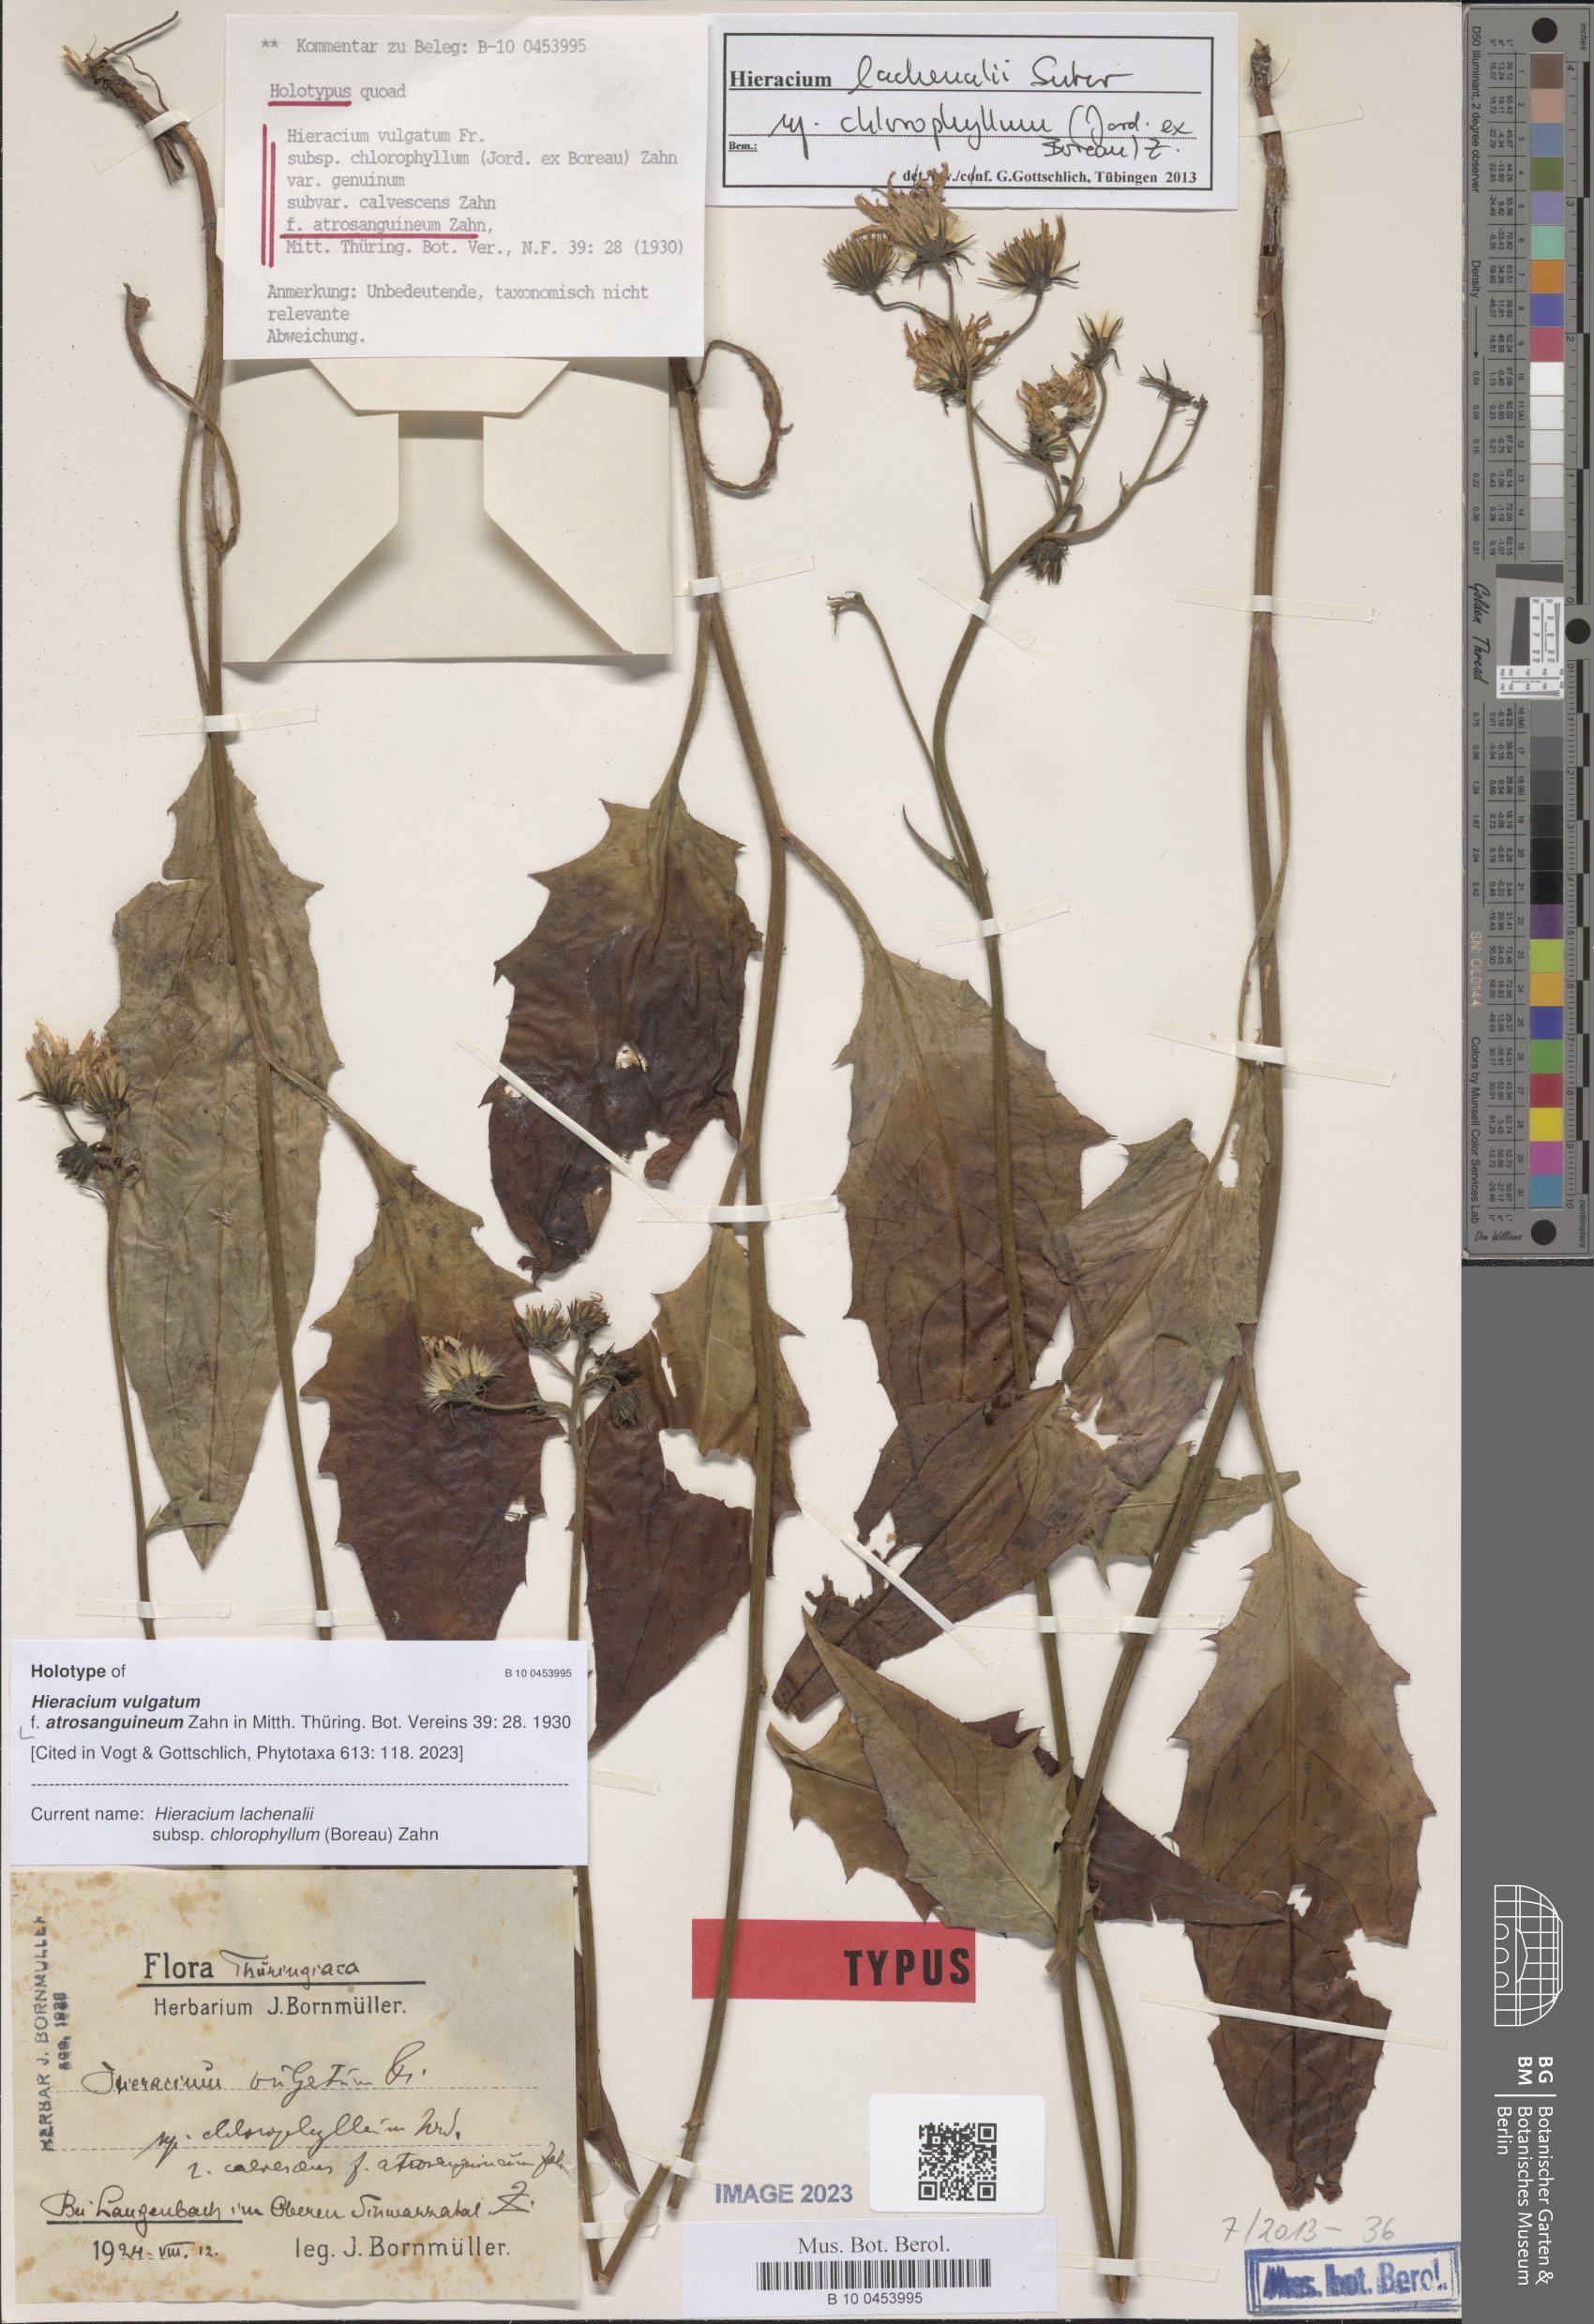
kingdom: Plantae
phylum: Tracheophyta
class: Magnoliopsida
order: Asterales
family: Asteraceae
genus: Hieracium
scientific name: Hieracium vulgatum
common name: Common hawkweed
